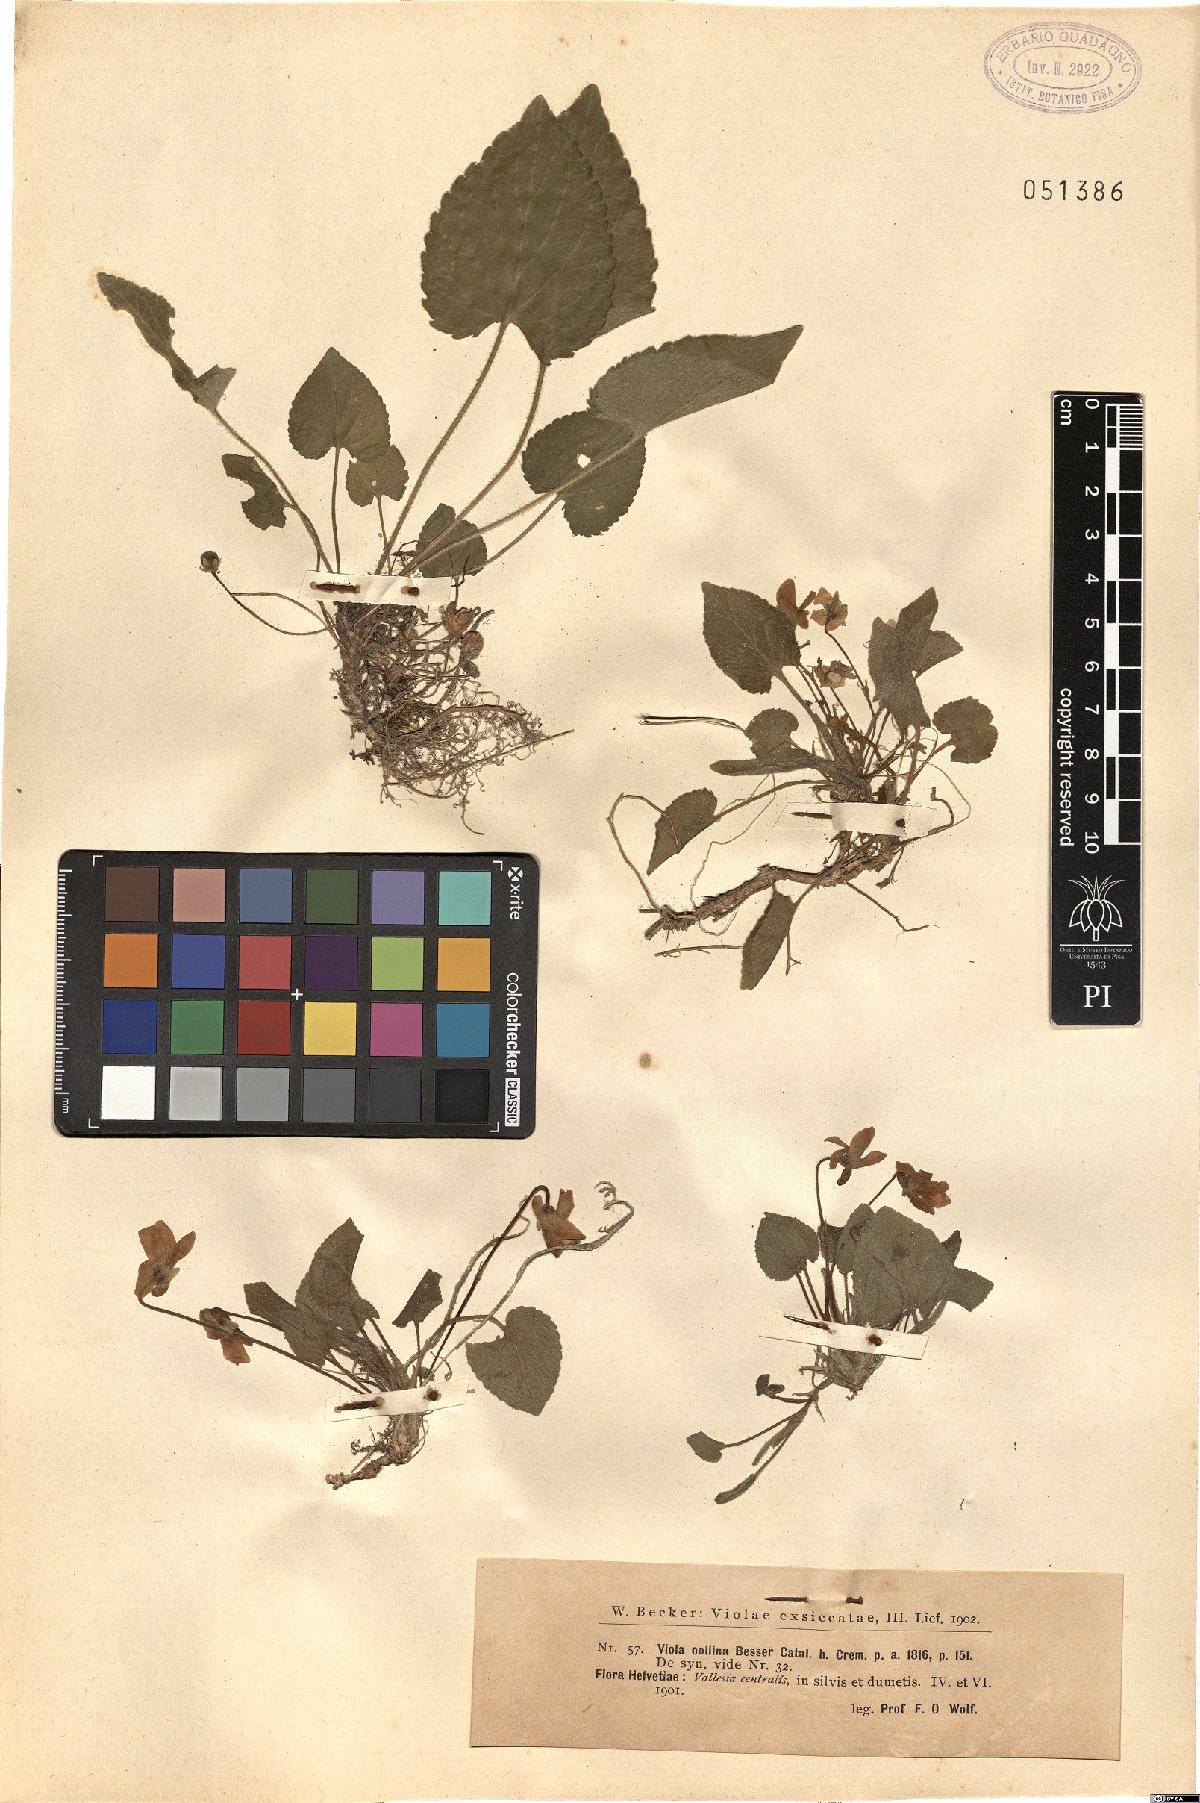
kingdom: Plantae
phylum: Tracheophyta
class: Magnoliopsida
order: Malpighiales
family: Violaceae
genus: Viola
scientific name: Viola collina
